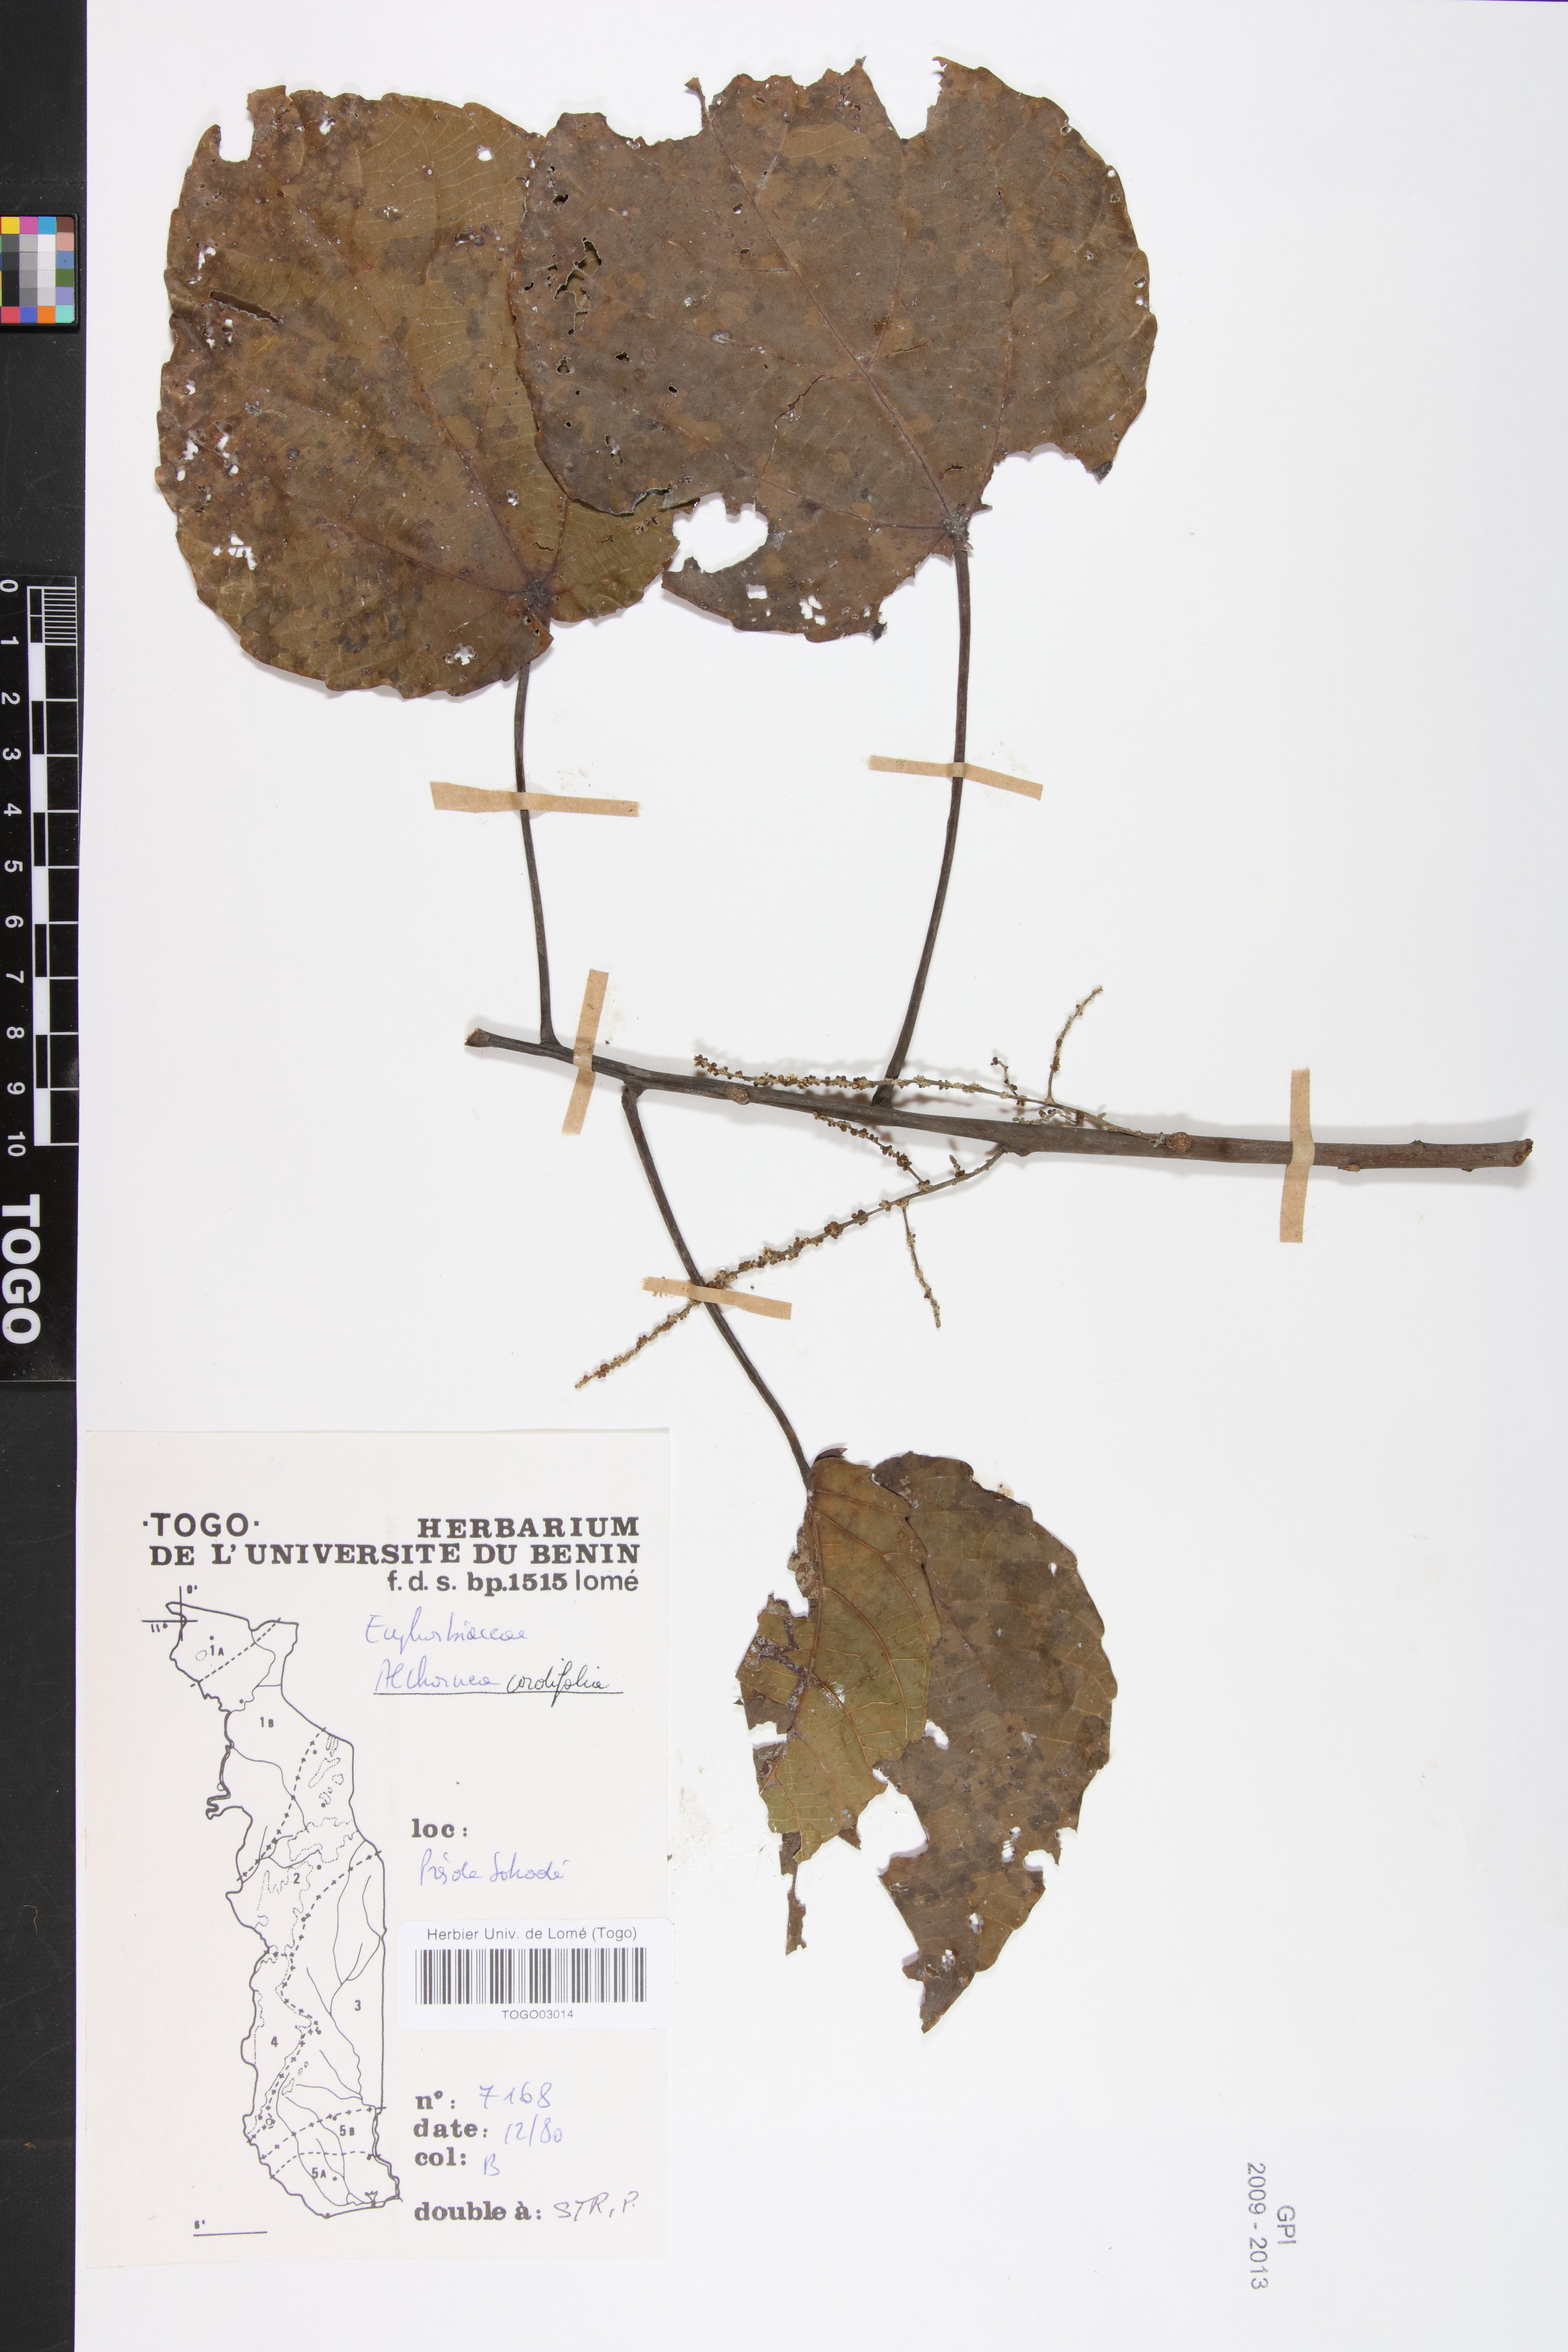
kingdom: Plantae
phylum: Tracheophyta
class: Magnoliopsida
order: Malpighiales
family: Euphorbiaceae
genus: Alchornea
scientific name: Alchornea cordifolia
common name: Christmasbush
